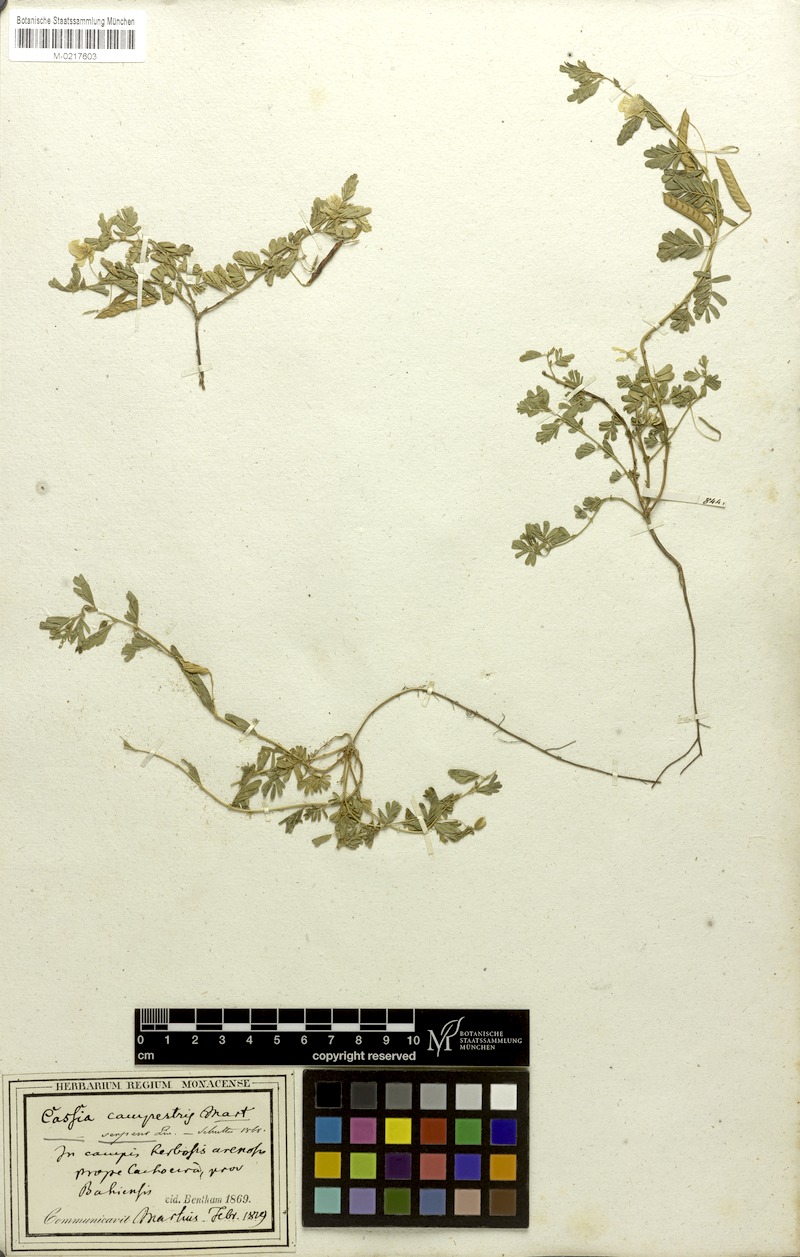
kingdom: Plantae
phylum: Tracheophyta
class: Magnoliopsida
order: Fabales
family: Fabaceae
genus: Chamaecrista
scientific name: Chamaecrista serpens
